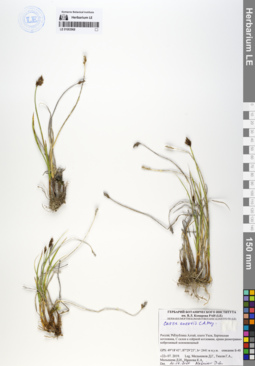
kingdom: Plantae
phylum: Tracheophyta
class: Liliopsida
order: Poales
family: Cyperaceae
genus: Carex
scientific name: Carex enervis
